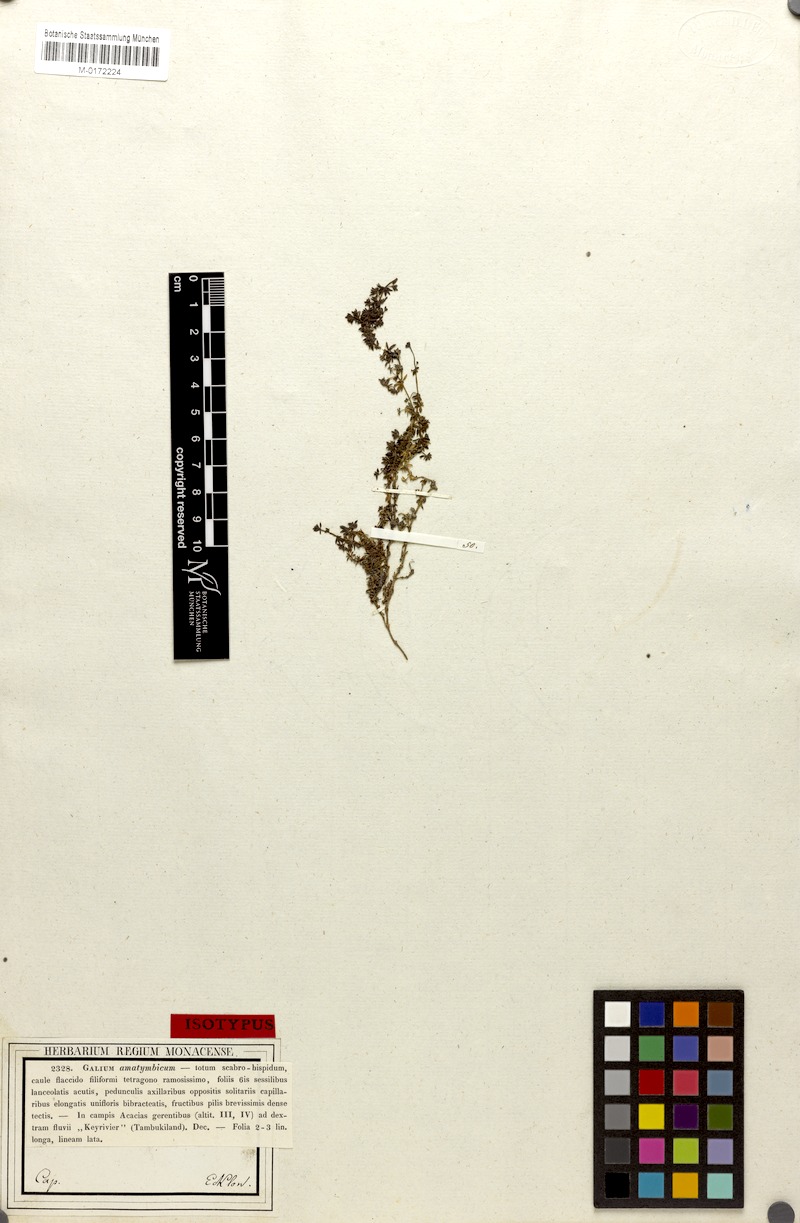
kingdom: Plantae
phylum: Tracheophyta
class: Magnoliopsida
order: Gentianales
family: Rubiaceae
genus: Galium
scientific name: Galium amatymbicum
